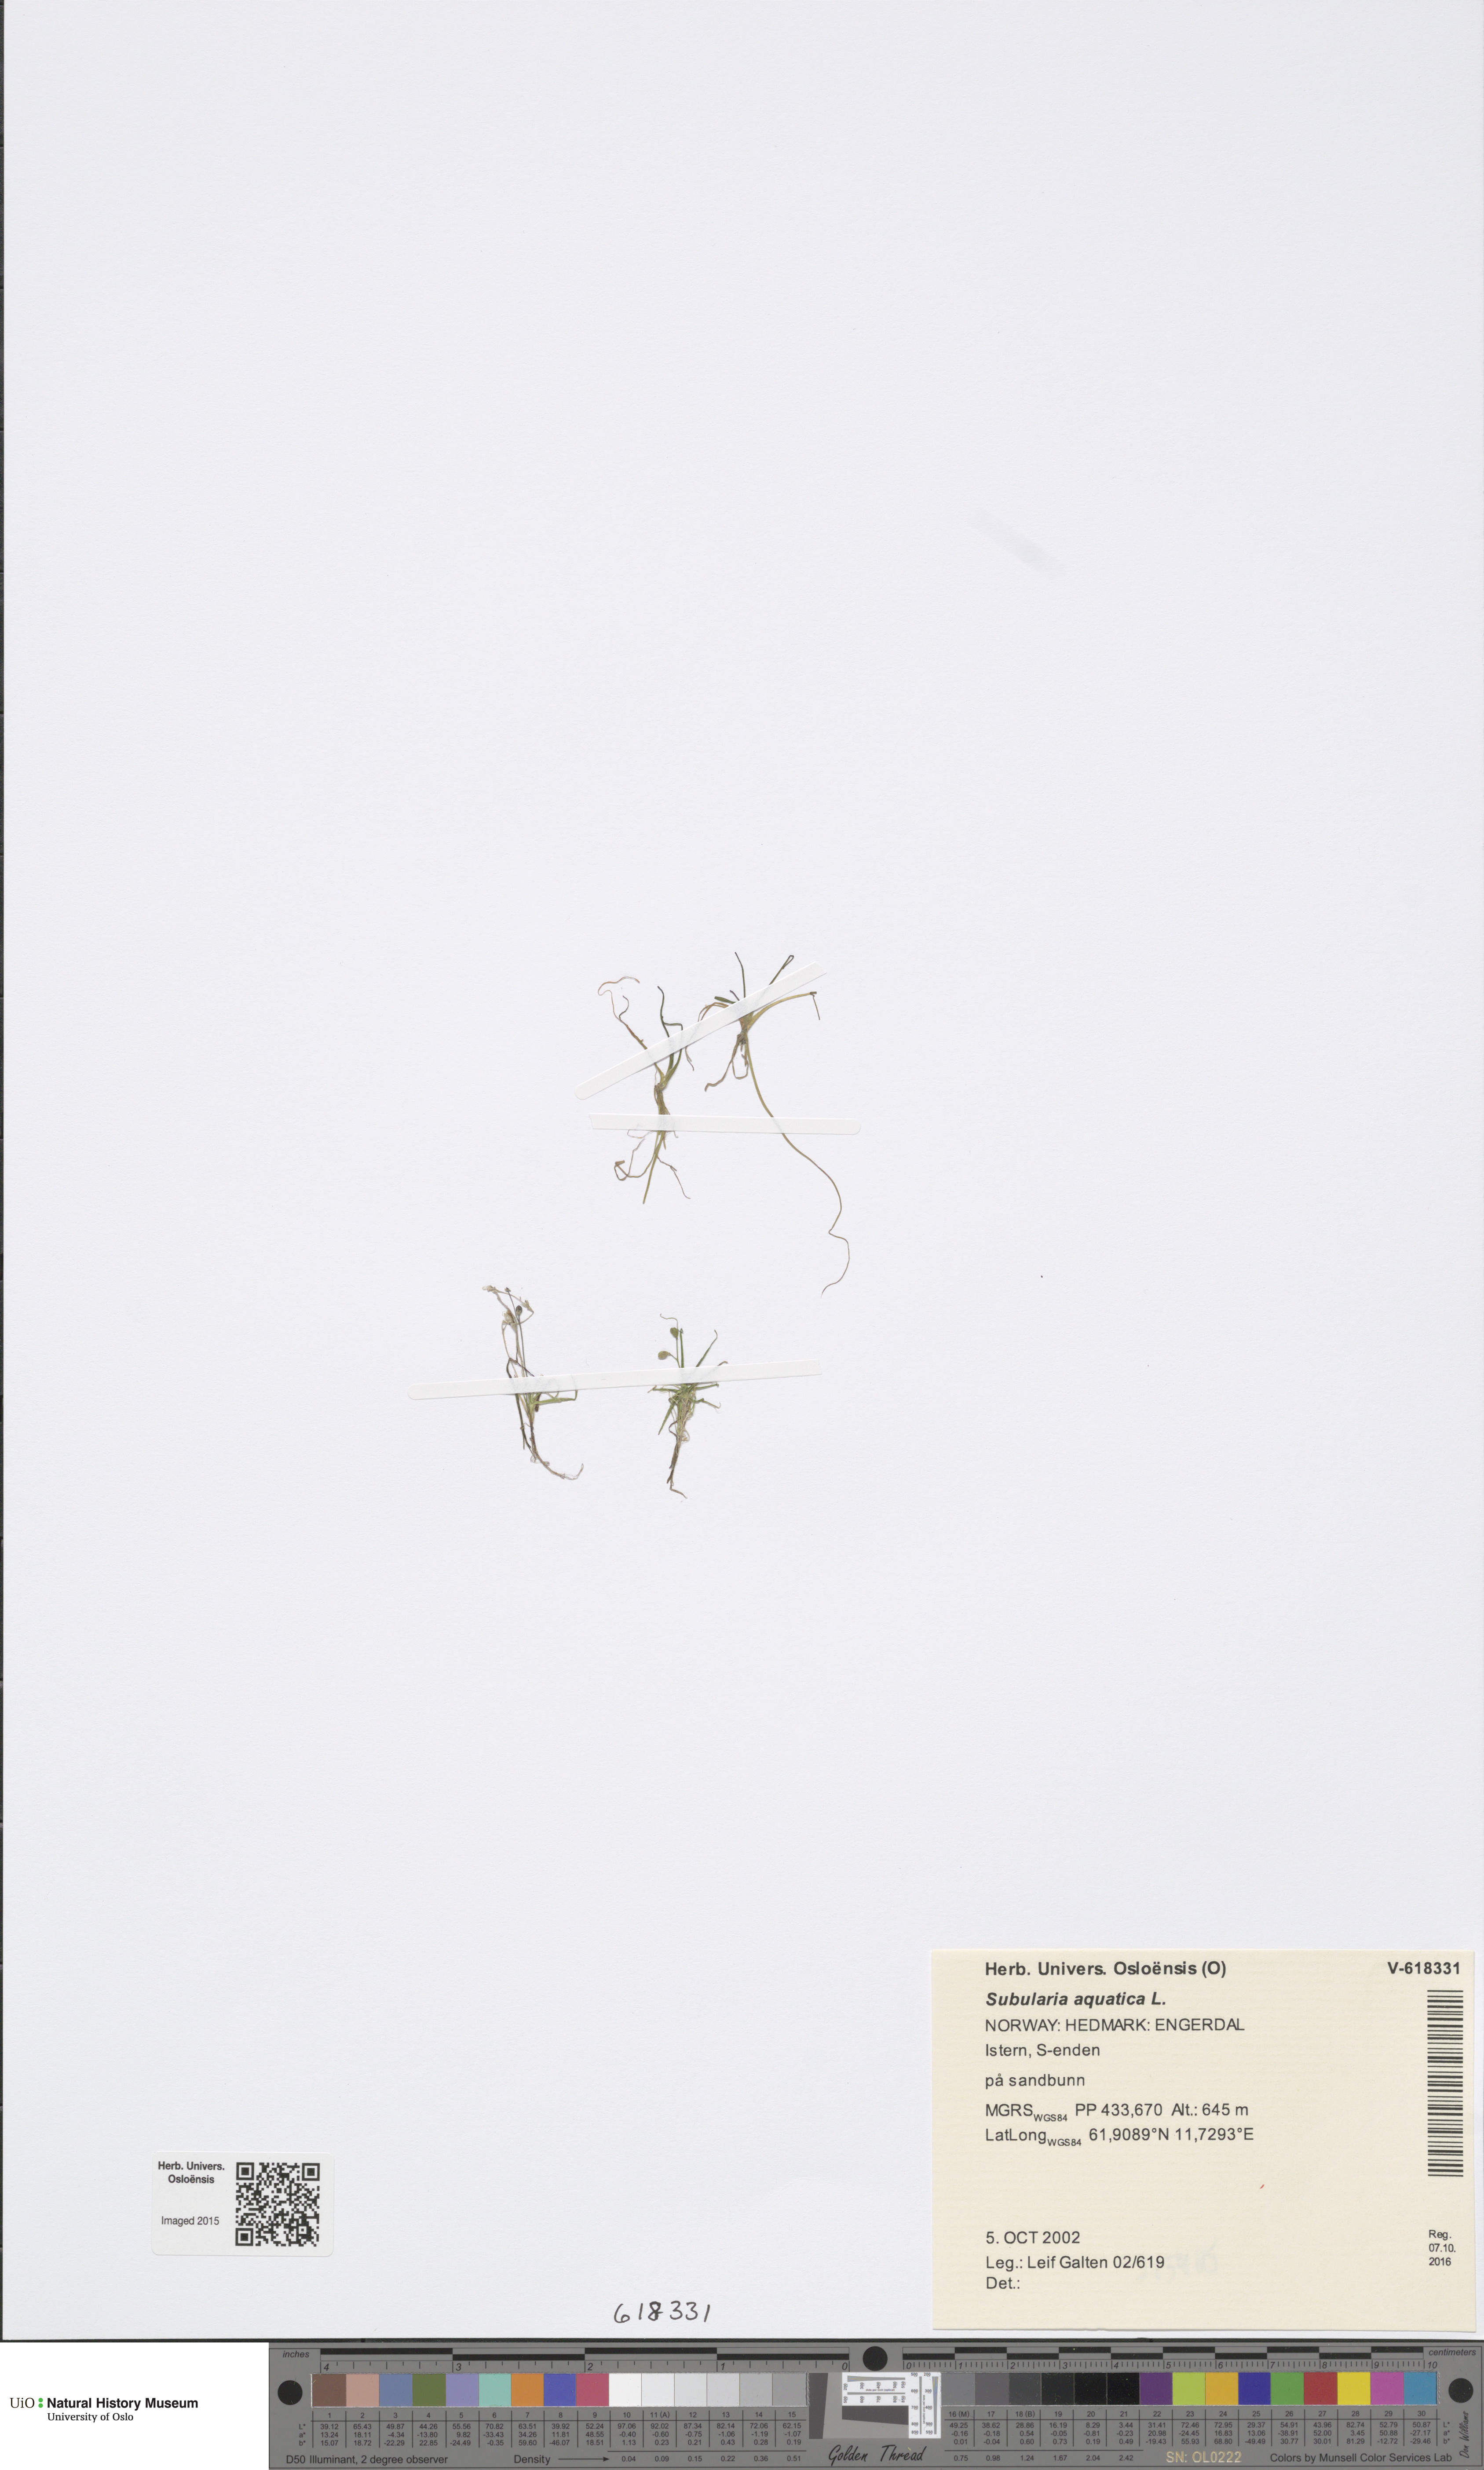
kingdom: Plantae
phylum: Tracheophyta
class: Magnoliopsida
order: Brassicales
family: Brassicaceae
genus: Subularia
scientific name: Subularia aquatica
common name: Awlwort
